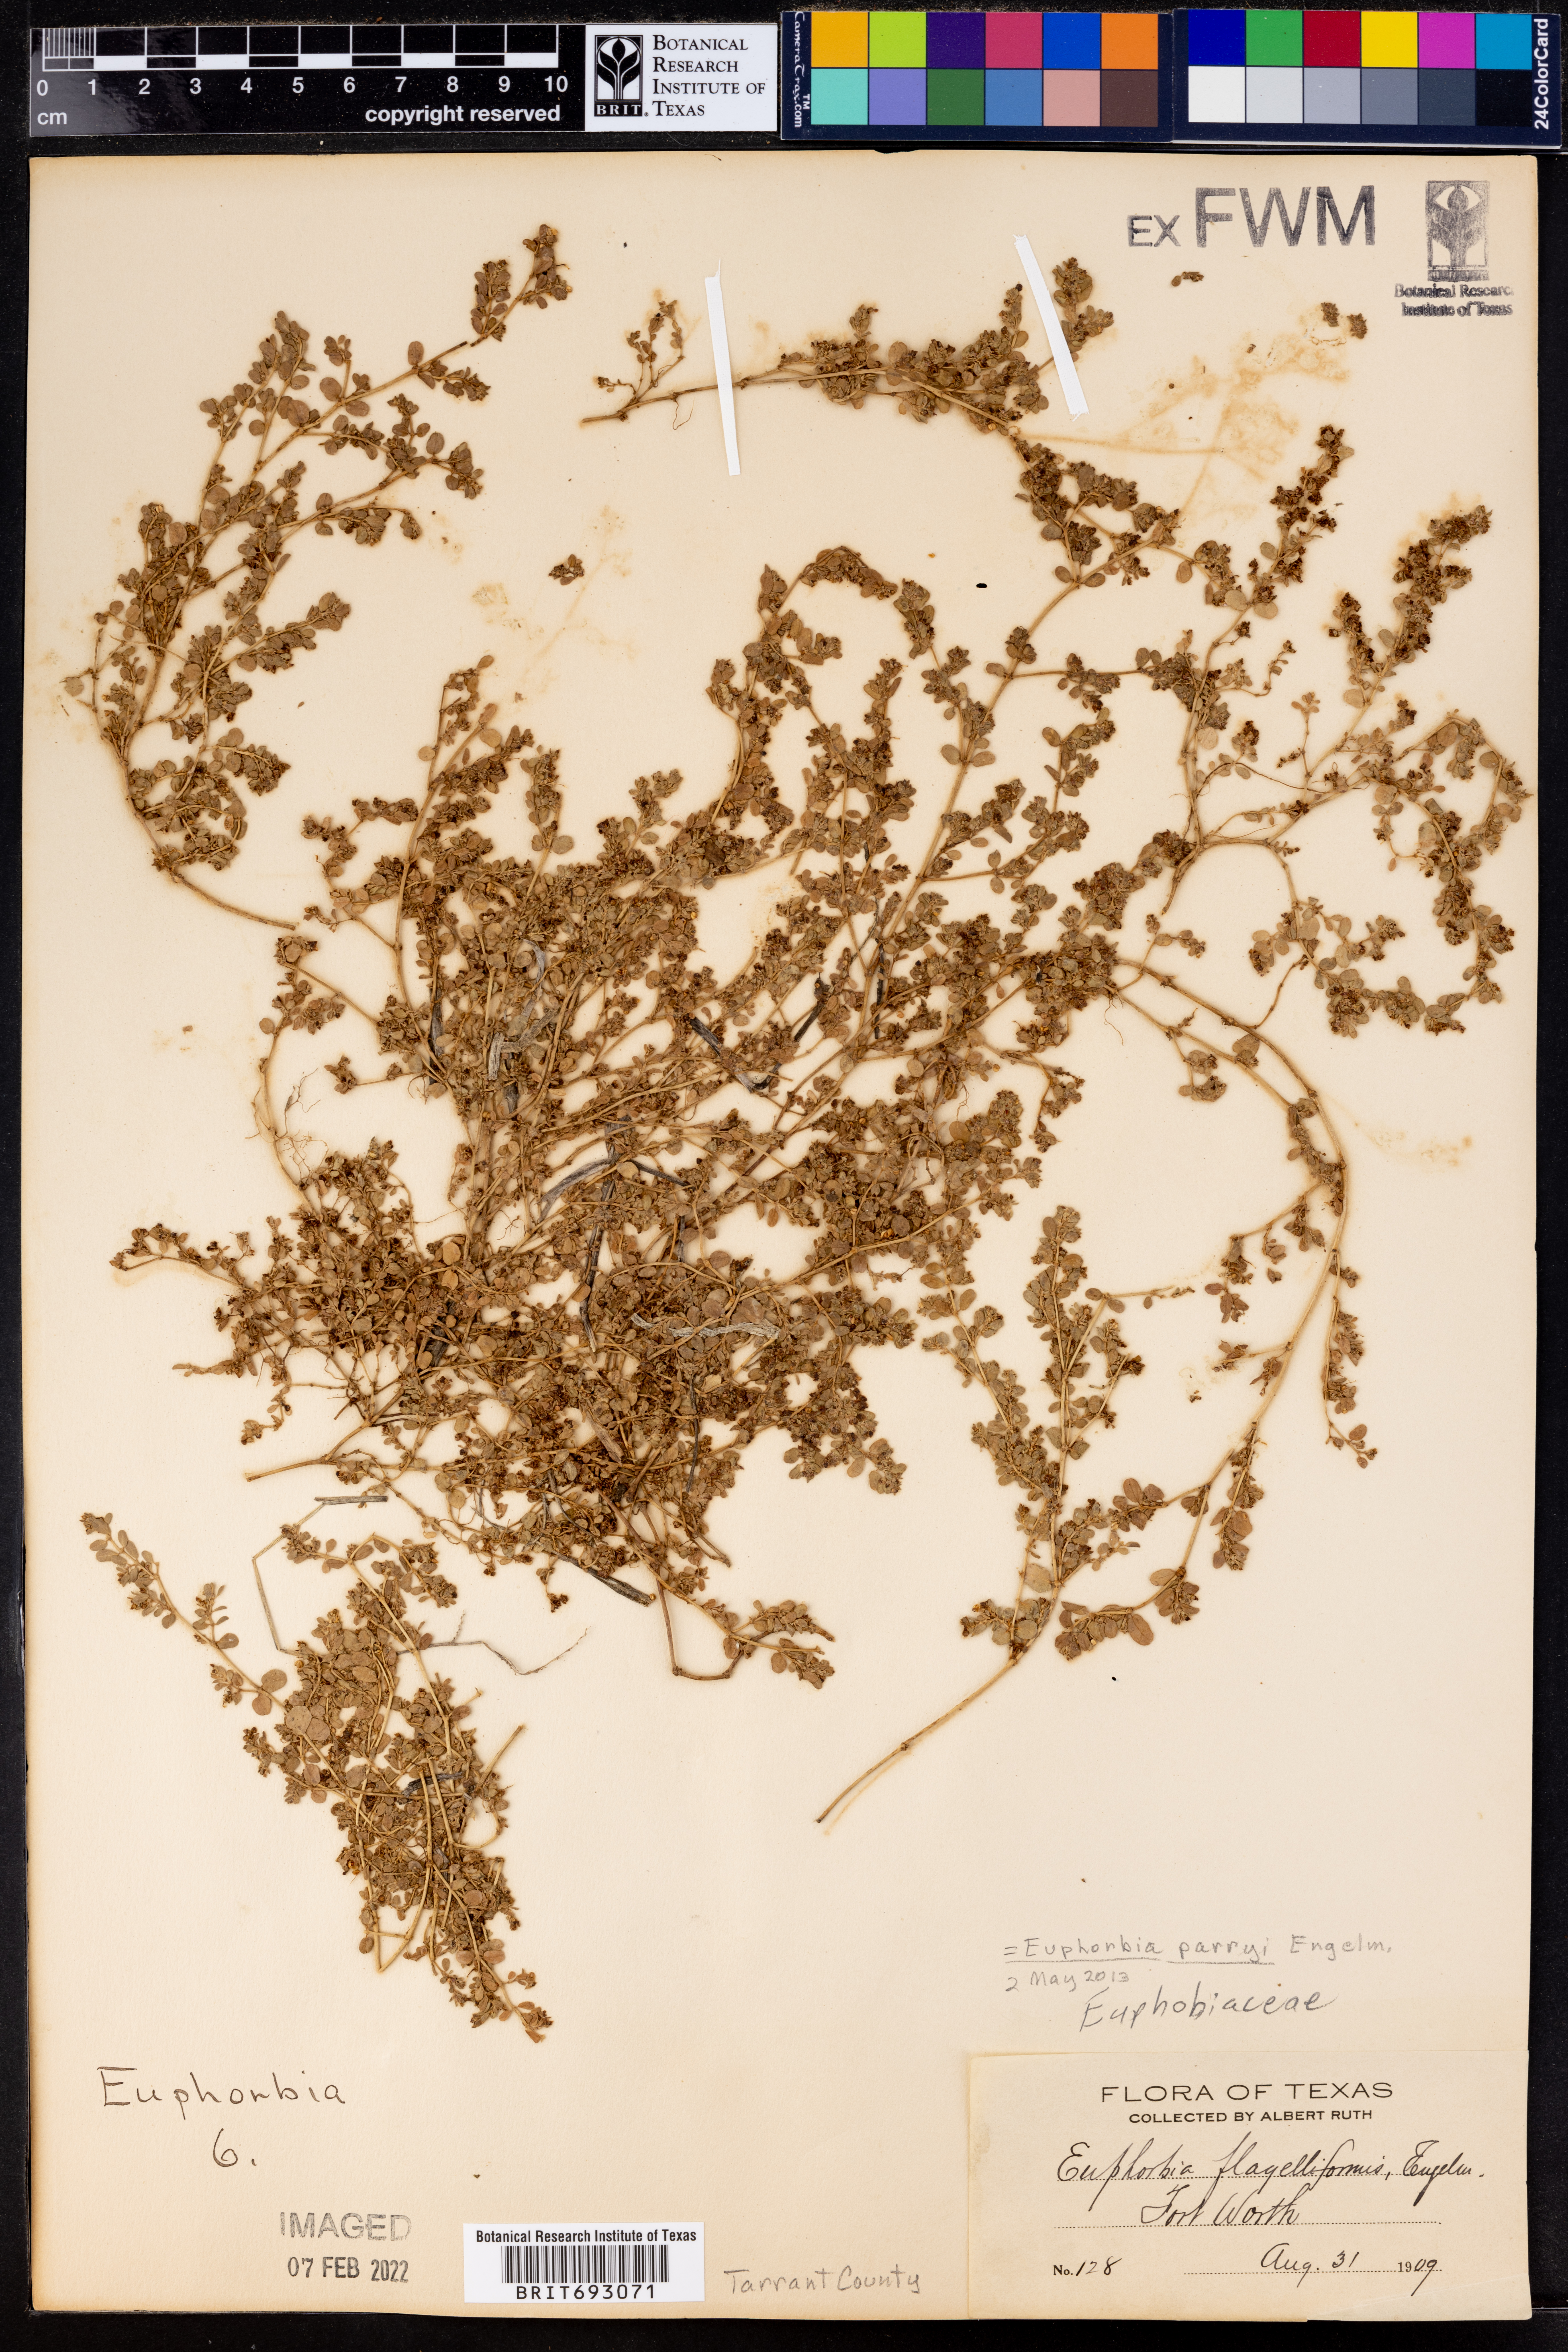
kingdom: Plantae
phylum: Tracheophyta
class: Magnoliopsida
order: Malpighiales
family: Euphorbiaceae
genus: Euphorbia
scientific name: Euphorbia parryi
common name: Dune spurge
